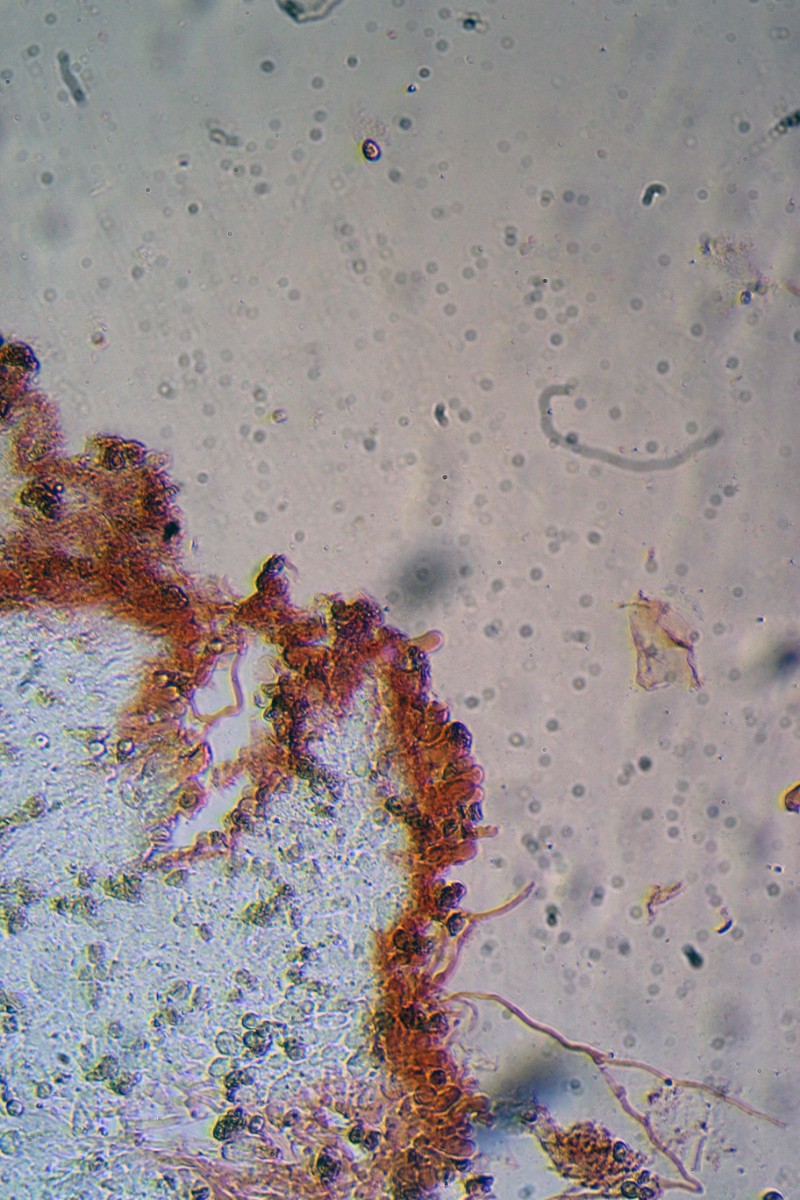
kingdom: Fungi
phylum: Basidiomycota
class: Agaricomycetes
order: Agaricales
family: Crepidotaceae
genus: Crepidotus
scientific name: Crepidotus cesatii
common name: almindelig muslingesvamp
